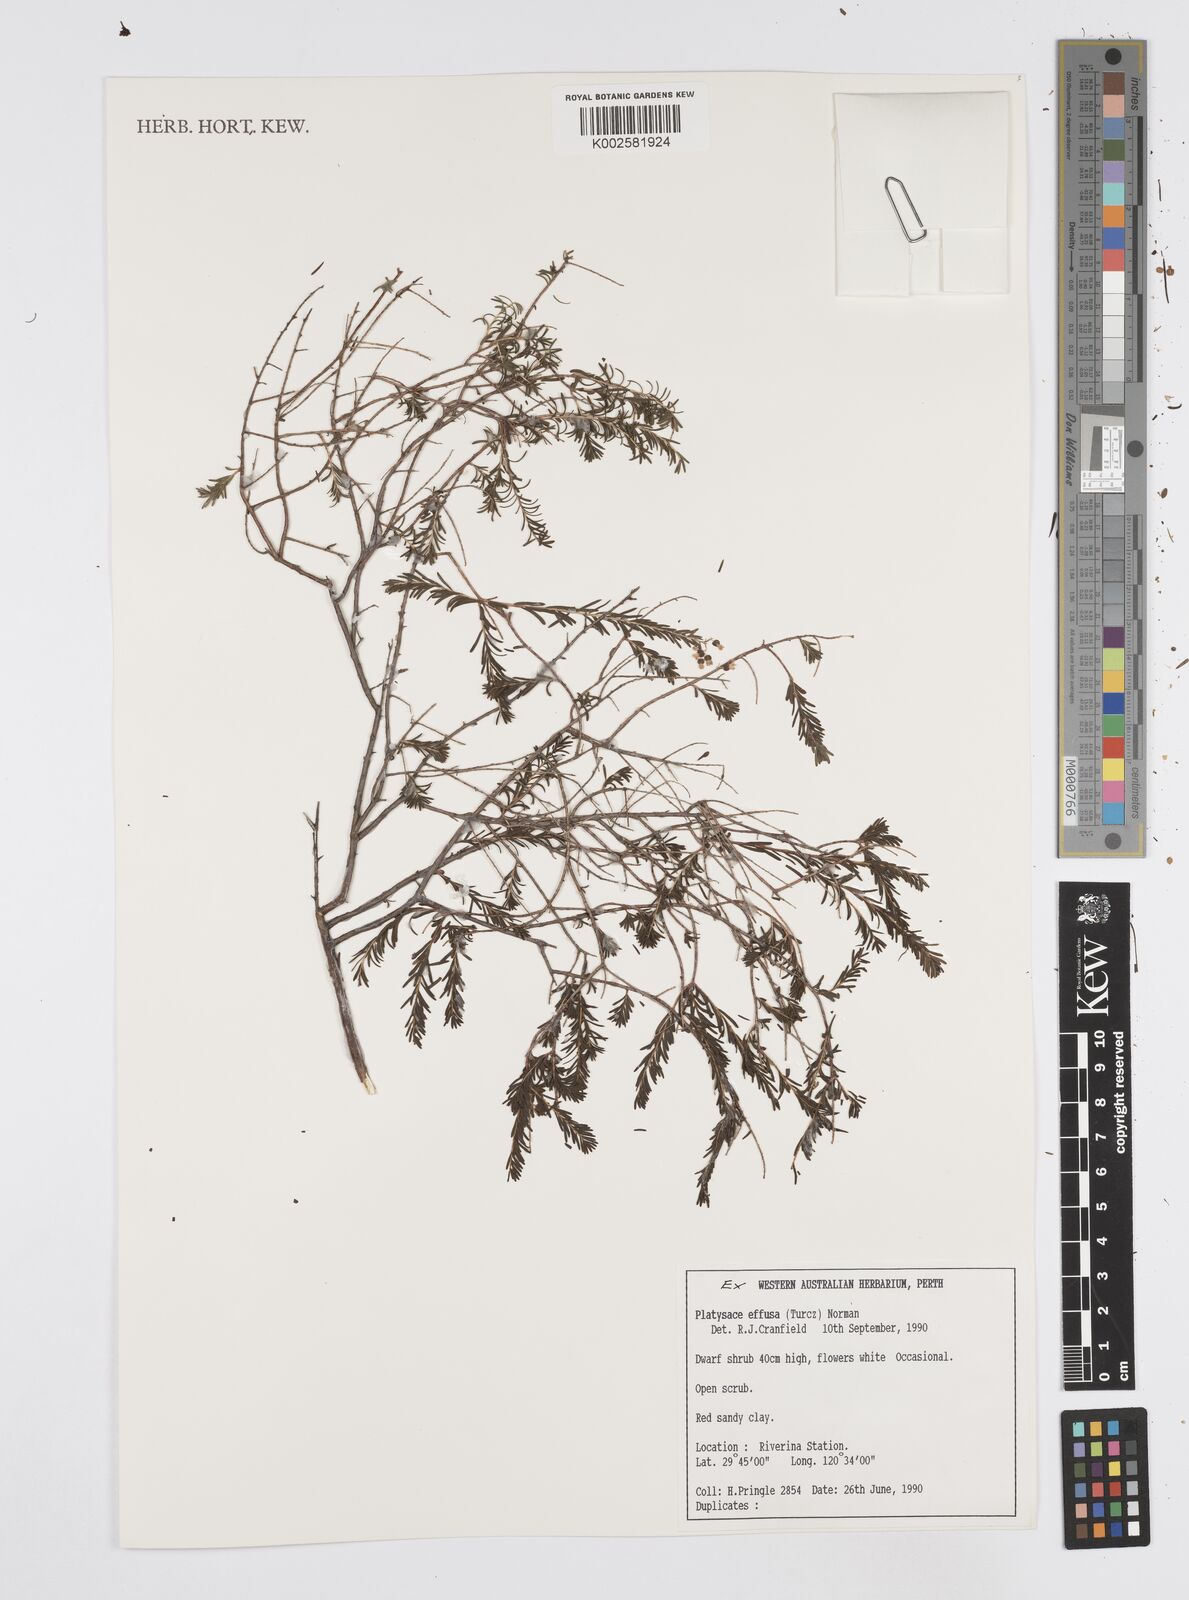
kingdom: Plantae
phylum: Tracheophyta
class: Magnoliopsida
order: Apiales
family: Apiaceae
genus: Platysace
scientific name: Platysace effusa
